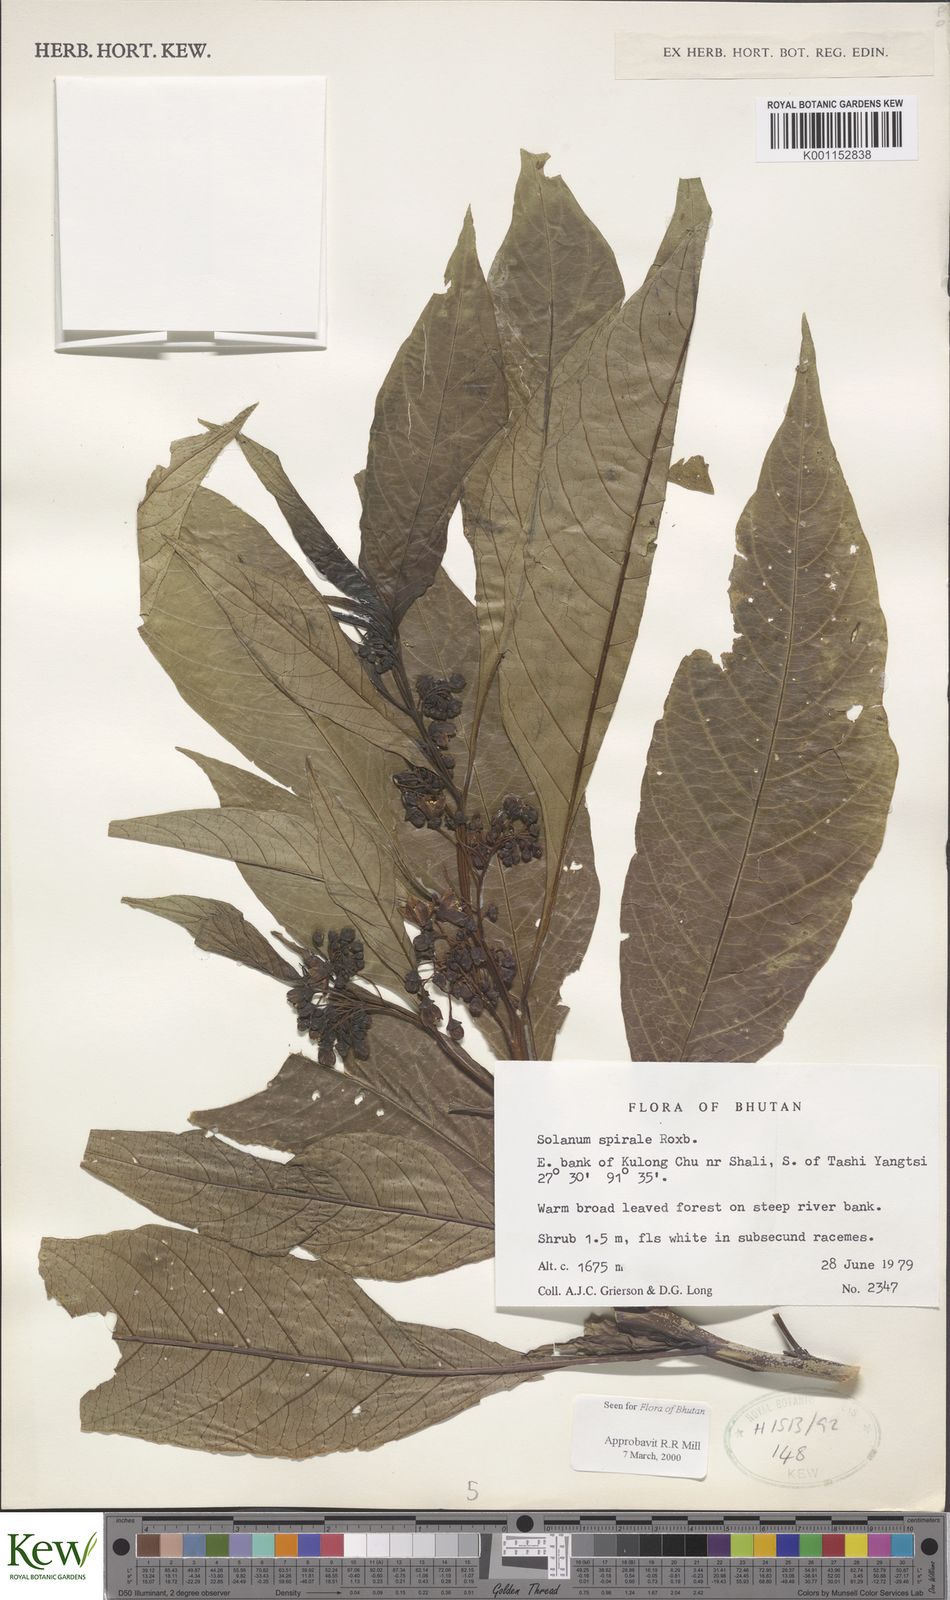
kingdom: Plantae
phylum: Tracheophyta
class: Magnoliopsida
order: Solanales
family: Solanaceae
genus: Solanum
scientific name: Solanum spirale
